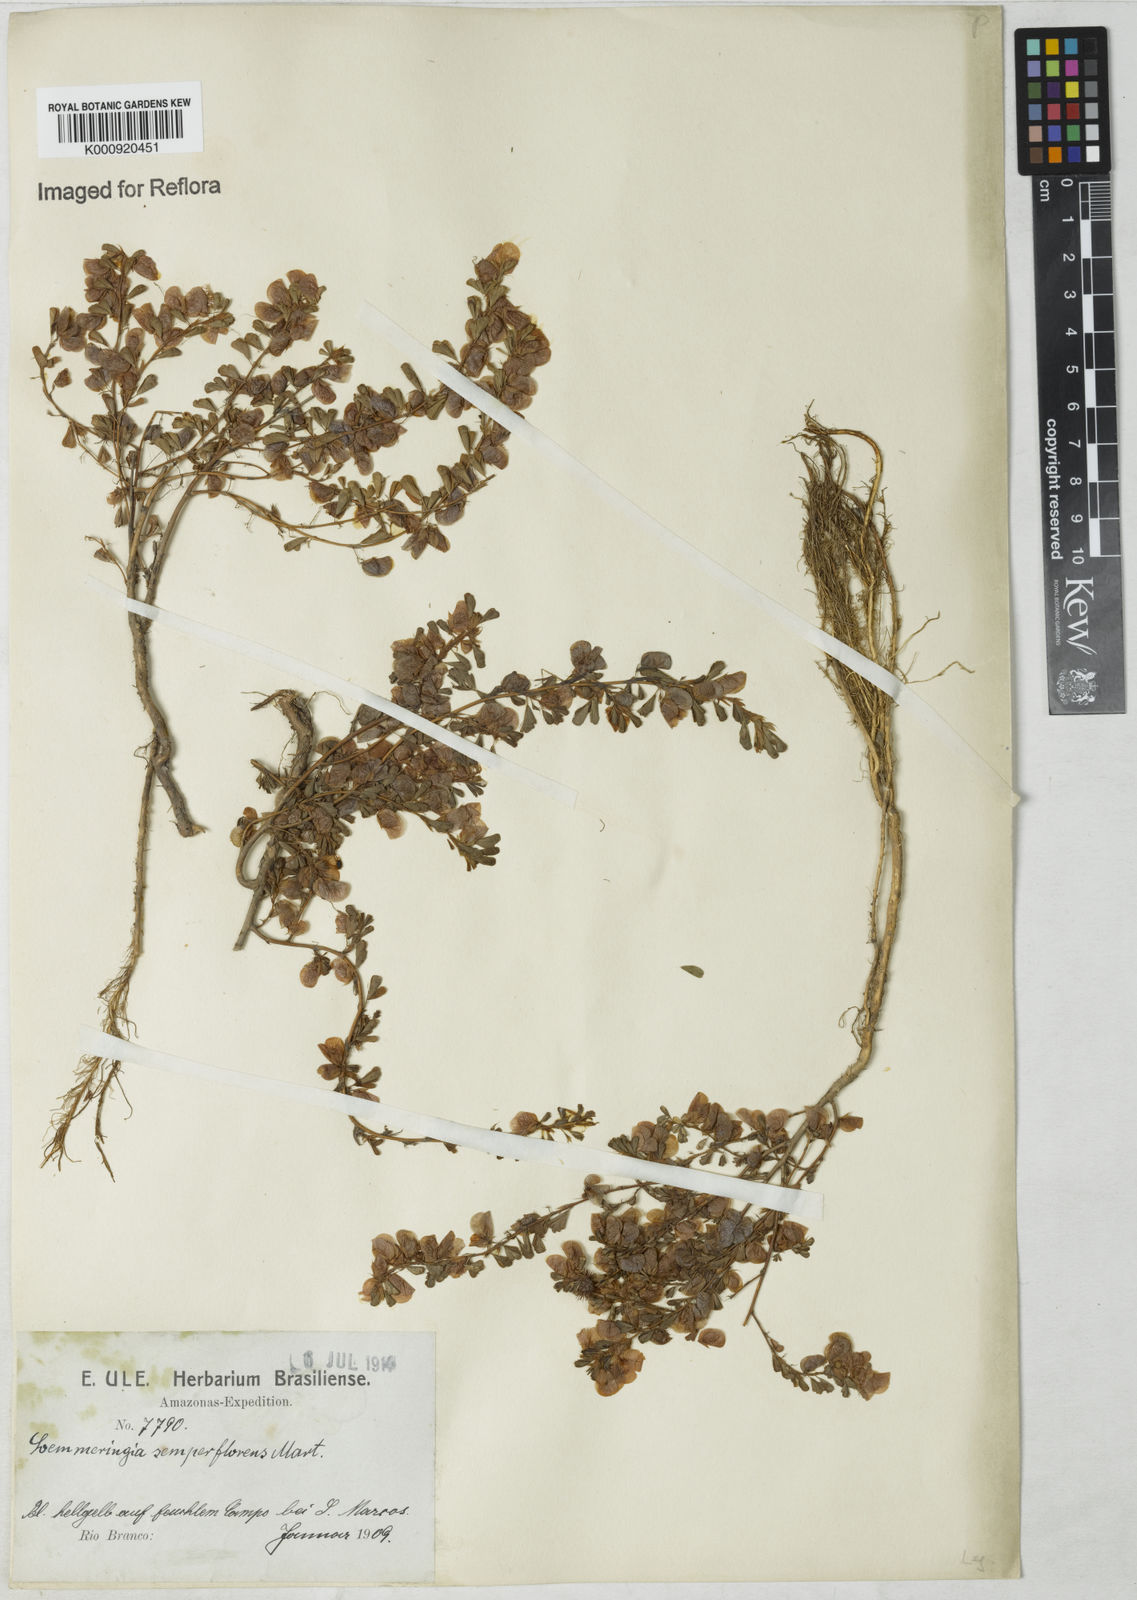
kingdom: Plantae
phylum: Tracheophyta
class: Magnoliopsida
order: Fabales
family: Fabaceae
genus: Soemmeringia
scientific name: Soemmeringia
